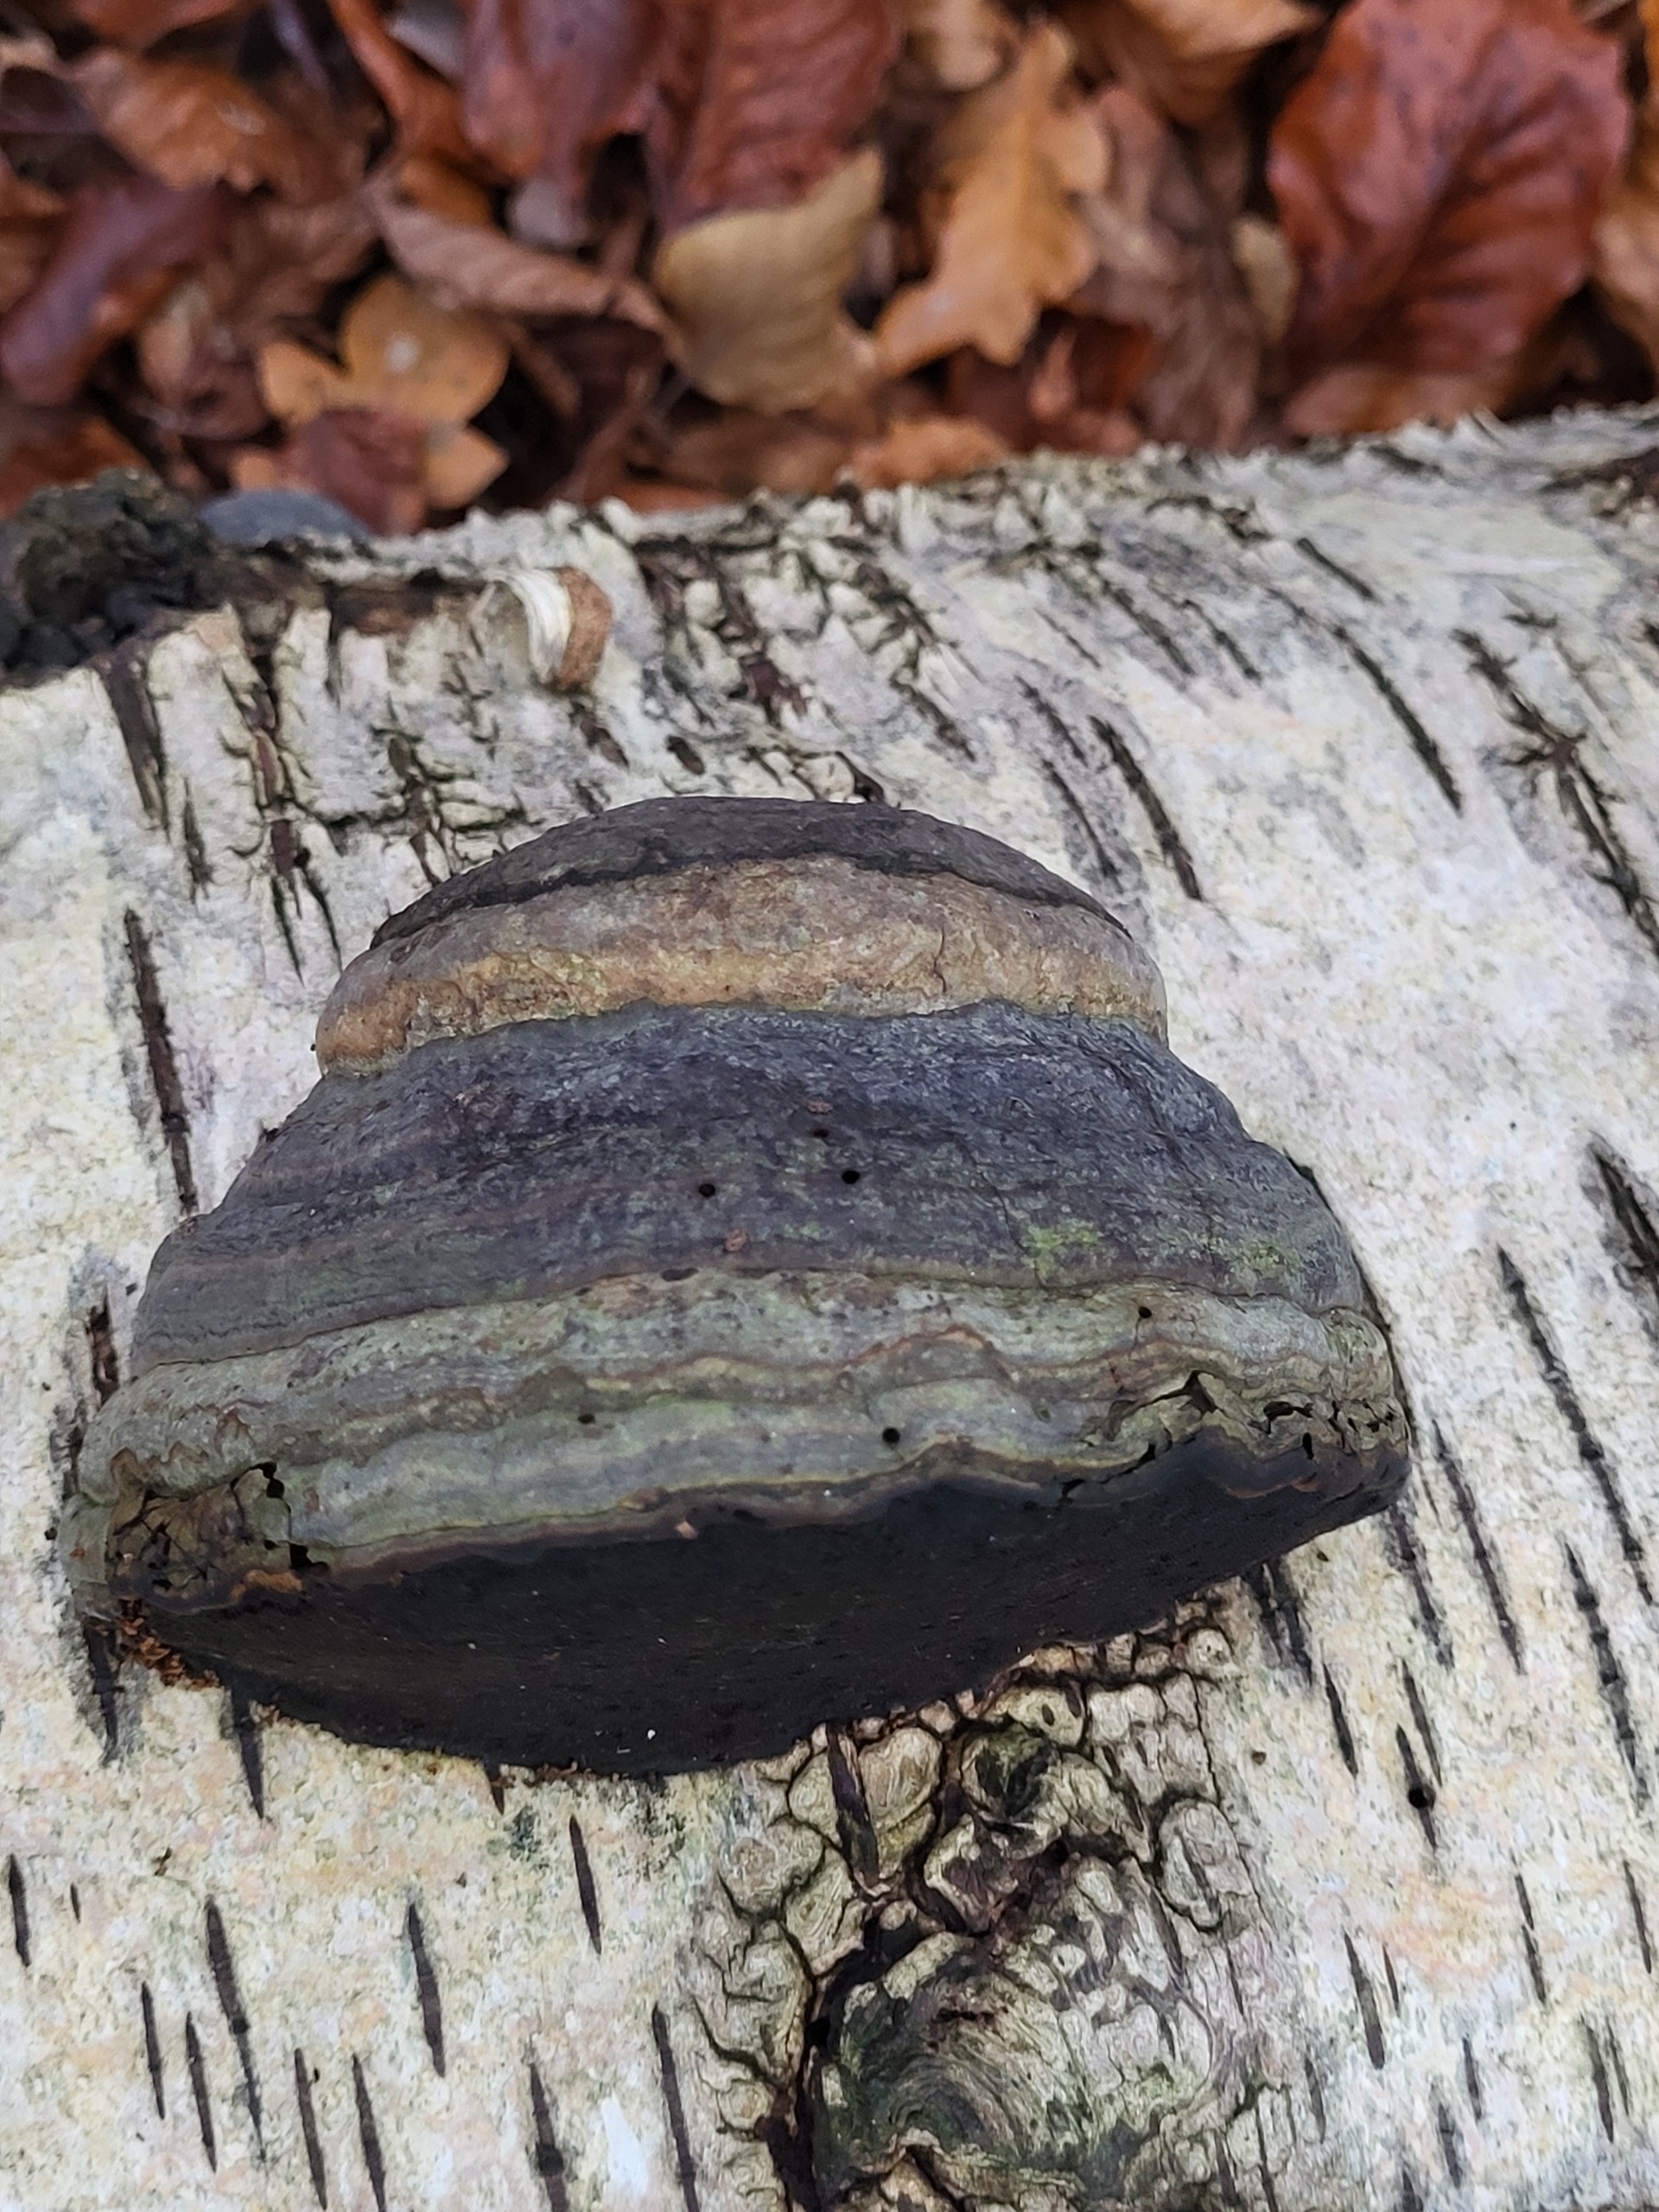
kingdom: Fungi
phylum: Basidiomycota
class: Agaricomycetes
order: Polyporales
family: Polyporaceae
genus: Fomes
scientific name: Fomes fomentarius
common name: Tøndersvamp
